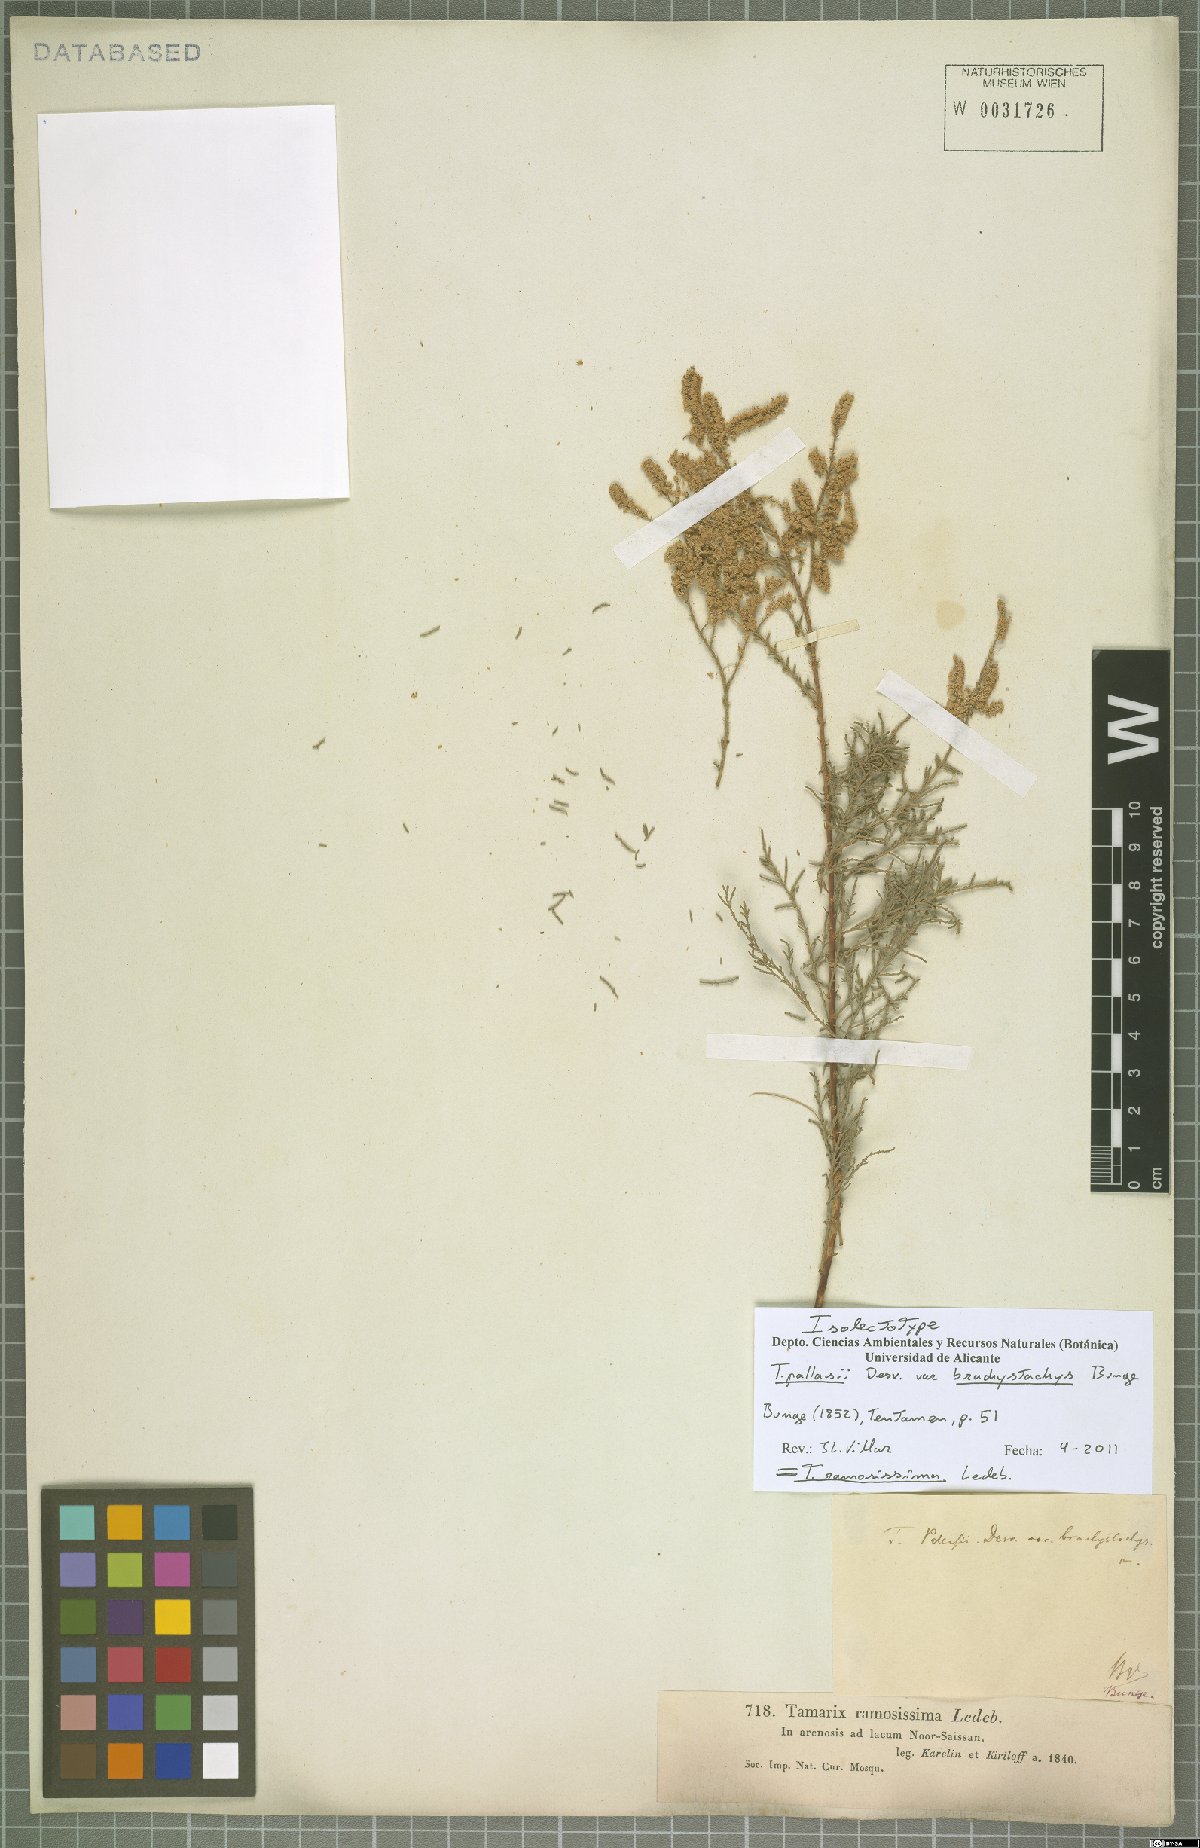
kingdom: Plantae
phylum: Tracheophyta
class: Magnoliopsida
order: Caryophyllales
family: Tamaricaceae
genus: Tamarix
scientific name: Tamarix ramosissima
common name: Pink tamarisk
